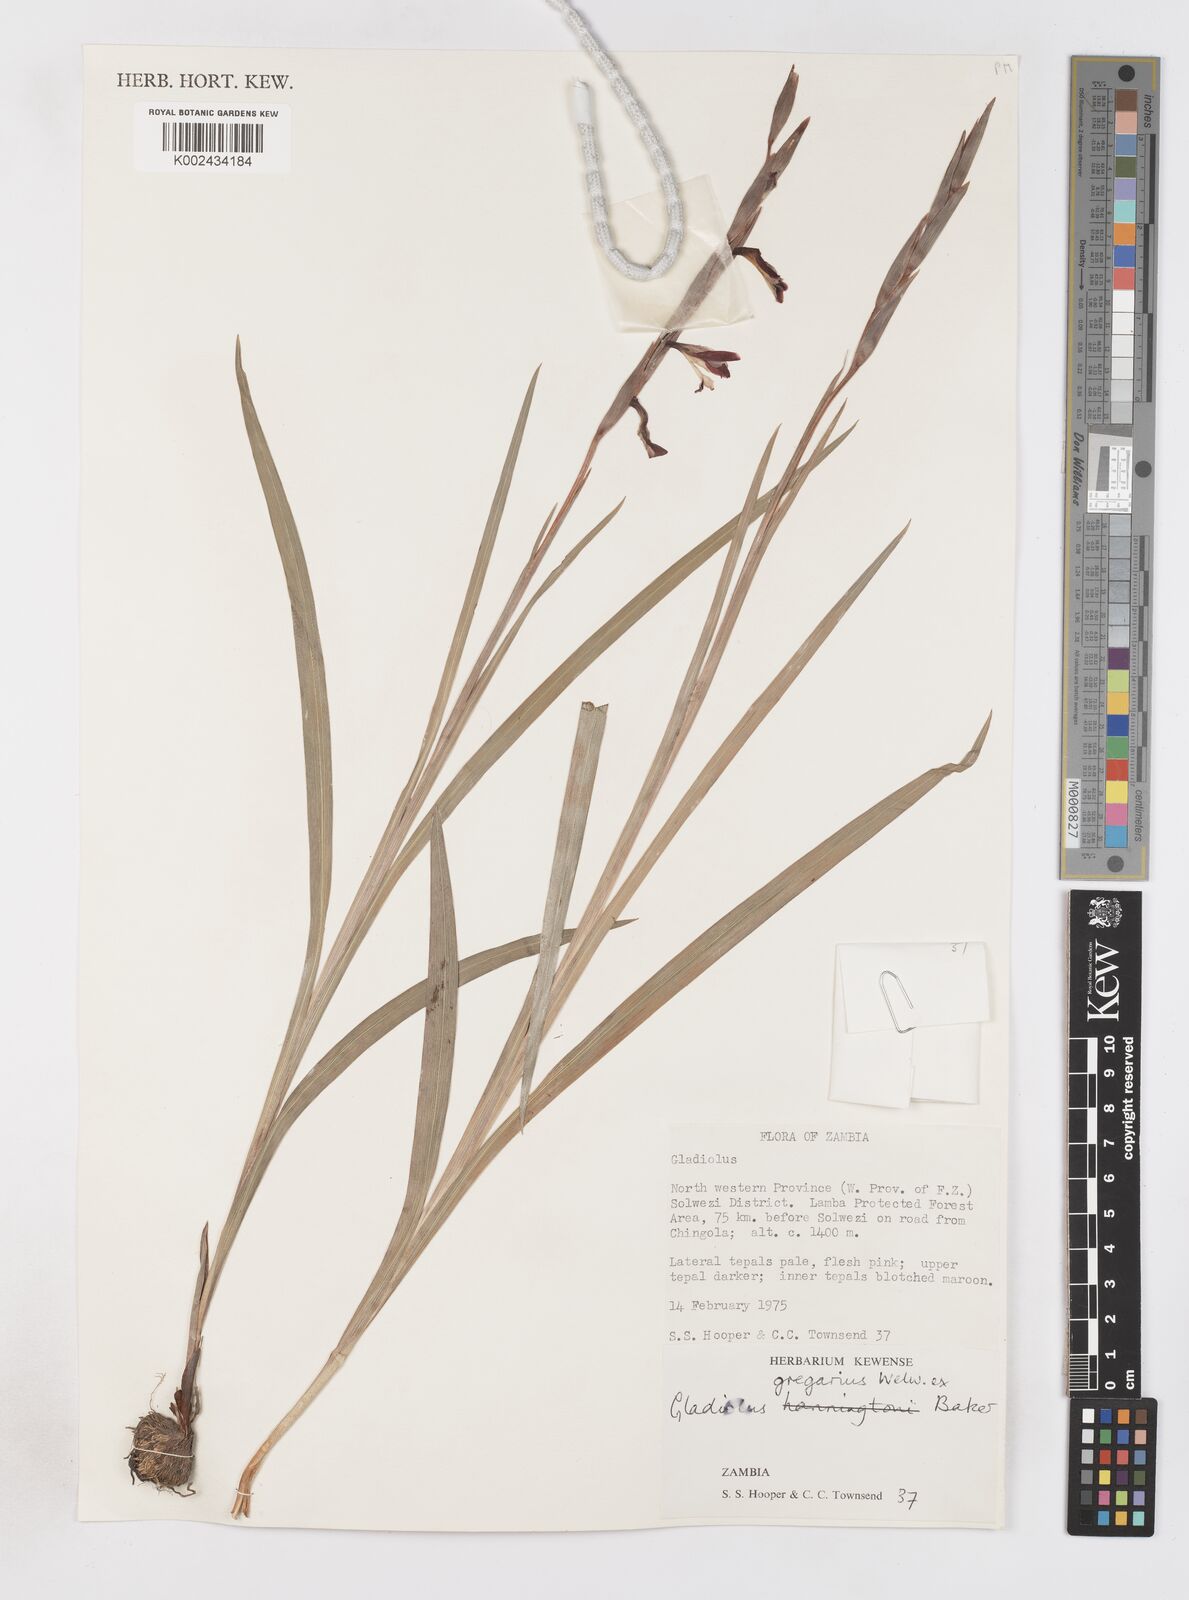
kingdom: Plantae
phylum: Tracheophyta
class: Liliopsida
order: Asparagales
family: Iridaceae
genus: Gladiolus
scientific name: Gladiolus gregarius
